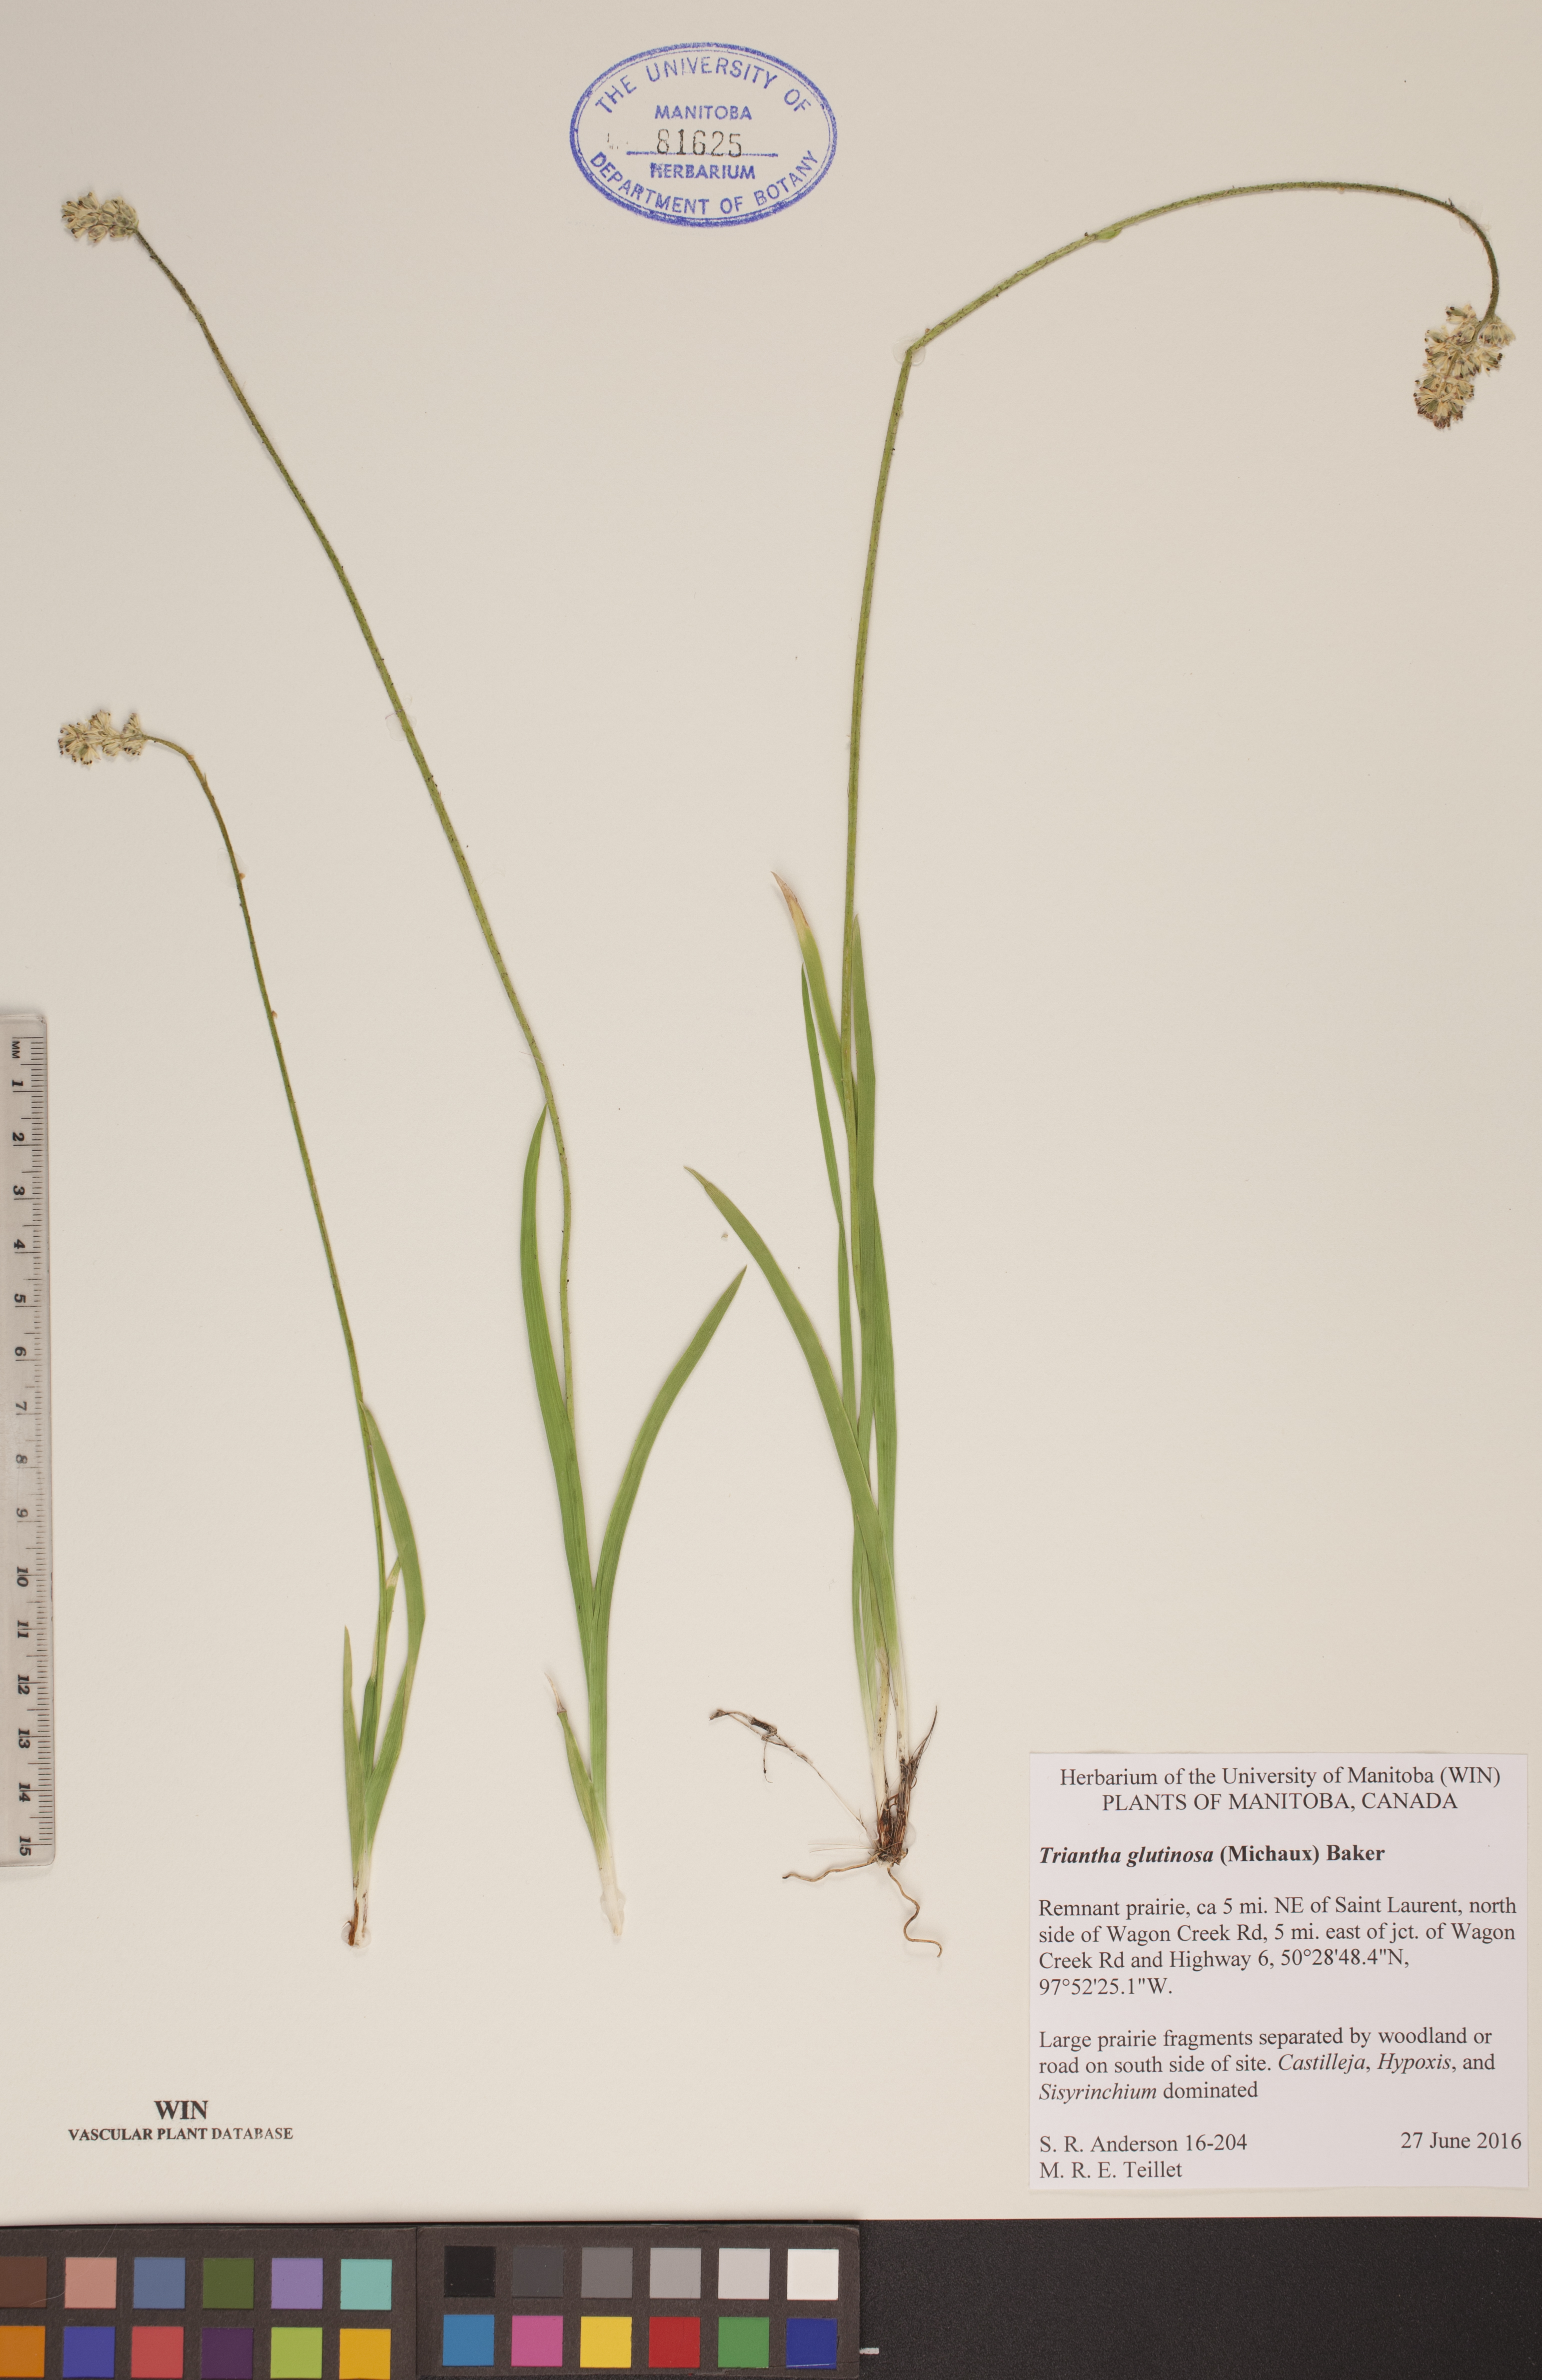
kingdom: Plantae
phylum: Tracheophyta
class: Liliopsida
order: Alismatales
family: Tofieldiaceae
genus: Triantha
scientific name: Triantha glutinosa
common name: Glutinous tofieldia
